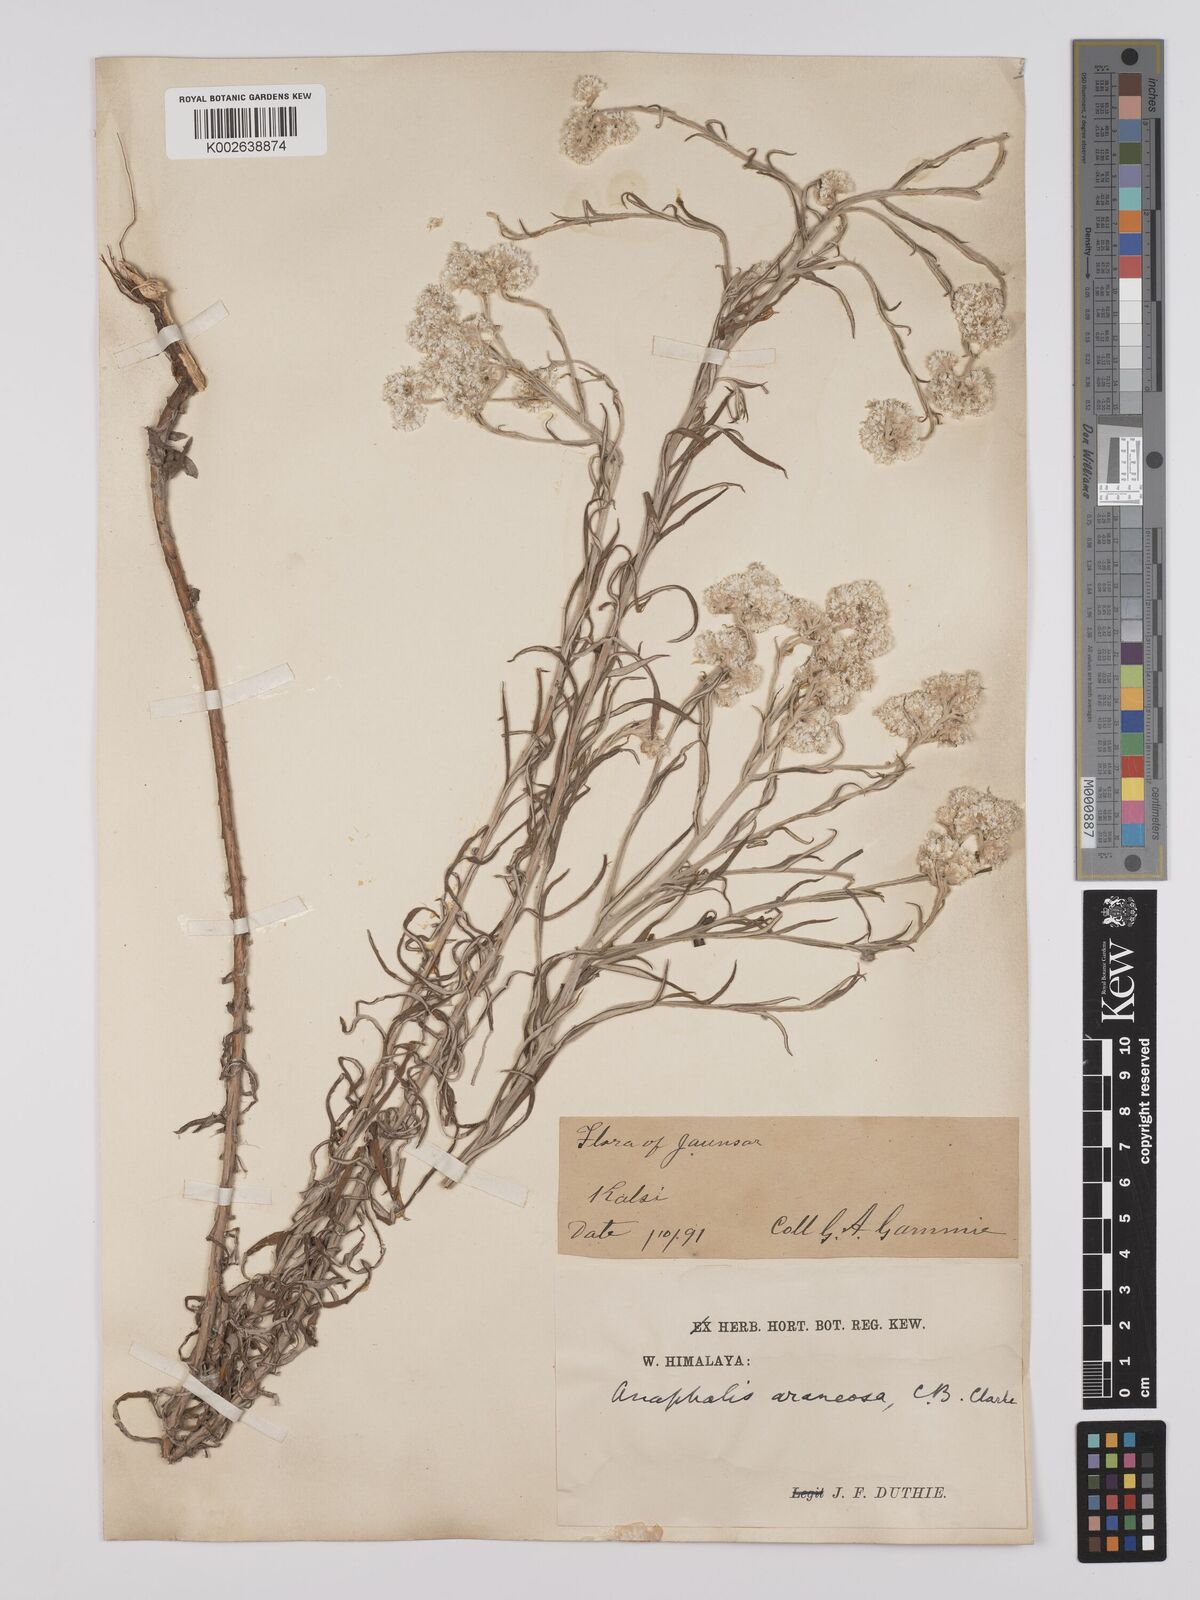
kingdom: Plantae
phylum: Tracheophyta
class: Magnoliopsida
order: Asterales
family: Asteraceae
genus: Anaphalis
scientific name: Anaphalis busua
